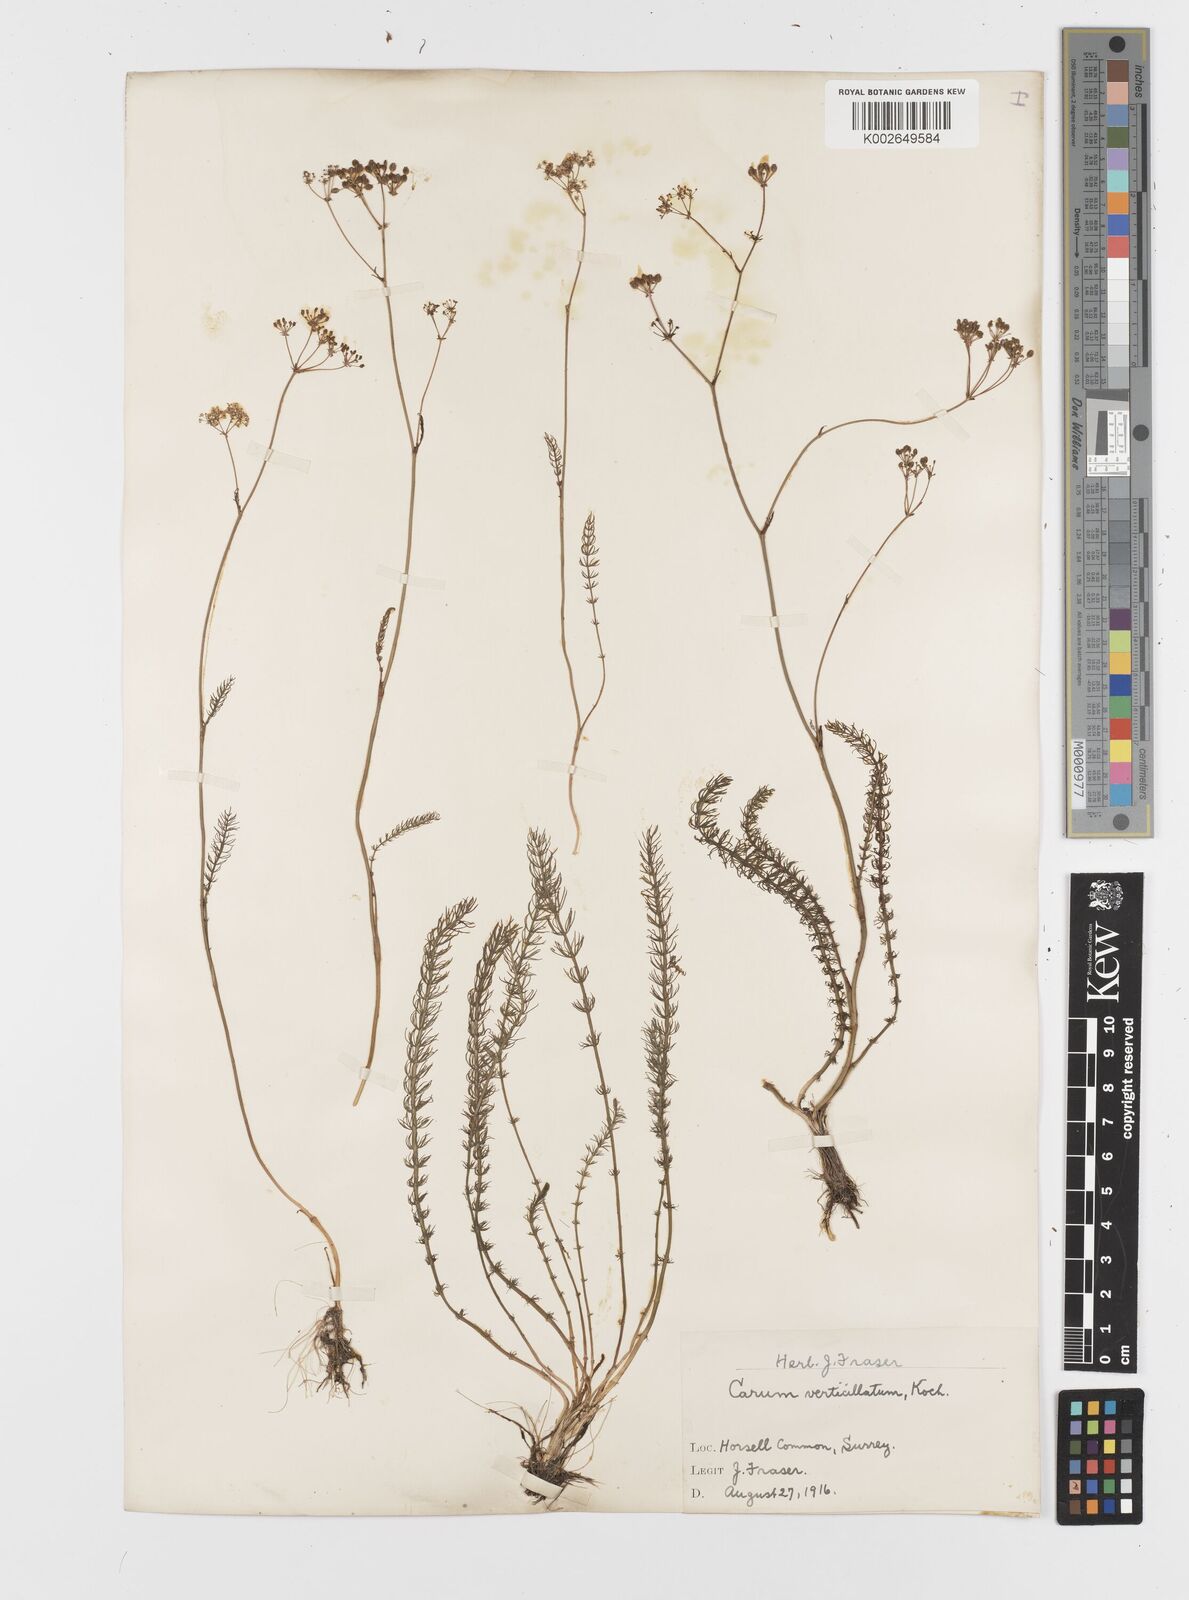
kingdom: Plantae
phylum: Tracheophyta
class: Magnoliopsida
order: Apiales
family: Apiaceae
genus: Trocdaris
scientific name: Trocdaris verticillatum
